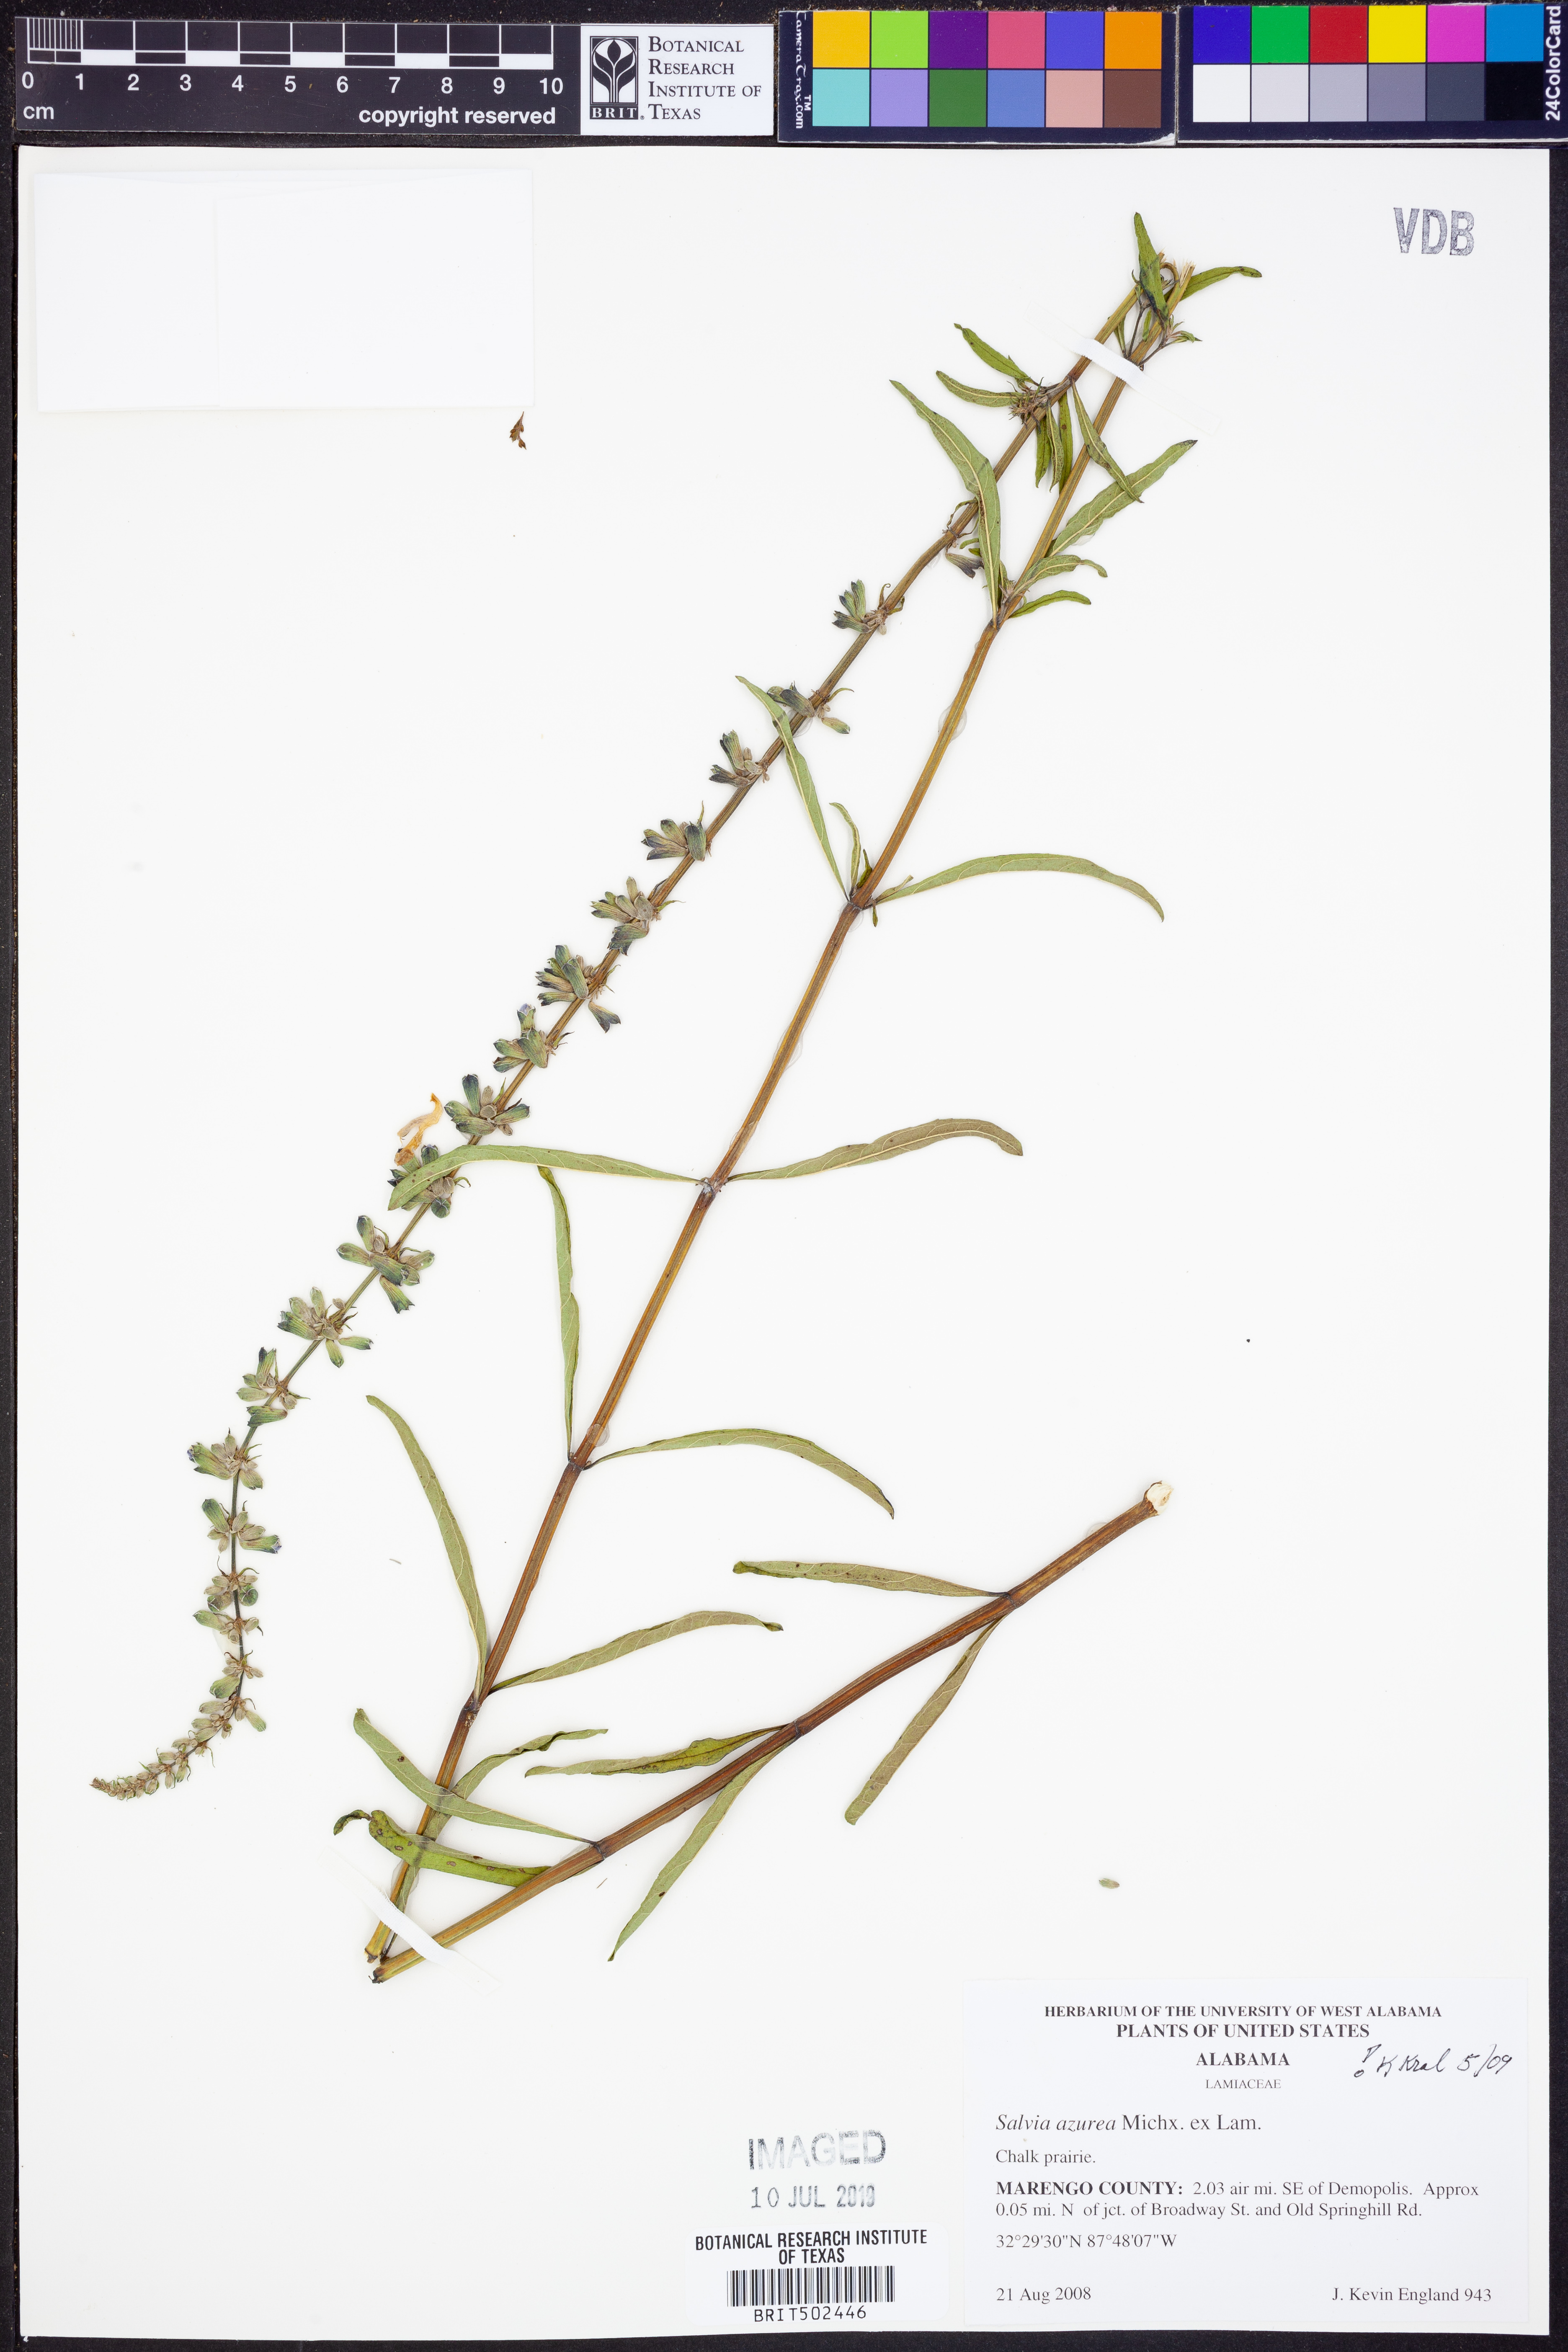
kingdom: Plantae
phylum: Tracheophyta
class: Magnoliopsida
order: Lamiales
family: Lamiaceae
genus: Salvia
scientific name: Salvia azurea
